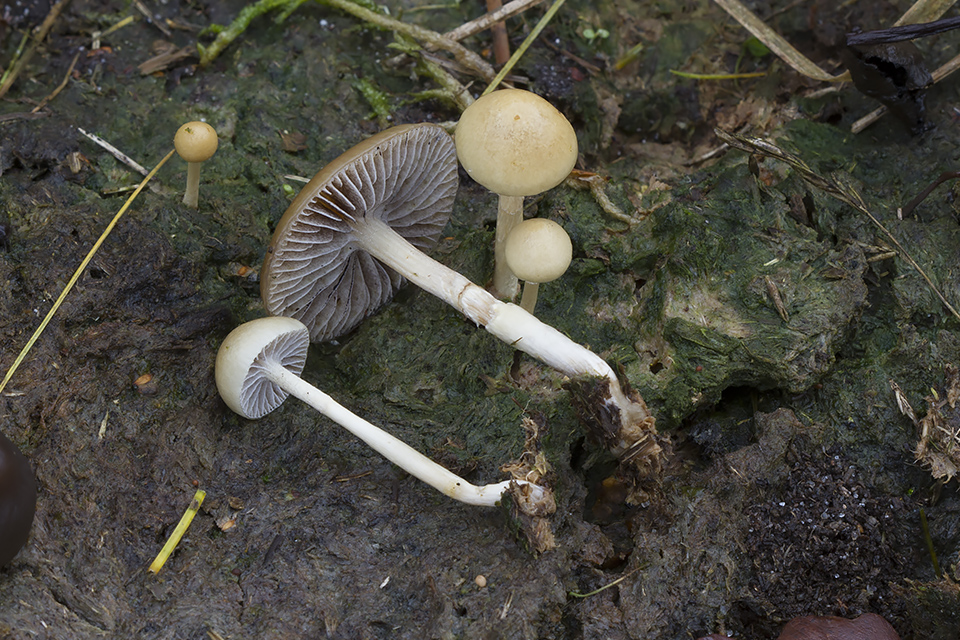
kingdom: Fungi
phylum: Basidiomycota
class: Agaricomycetes
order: Agaricales
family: Strophariaceae
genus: Protostropharia
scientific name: Protostropharia semiglobata
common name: halvkugleformet bredblad
